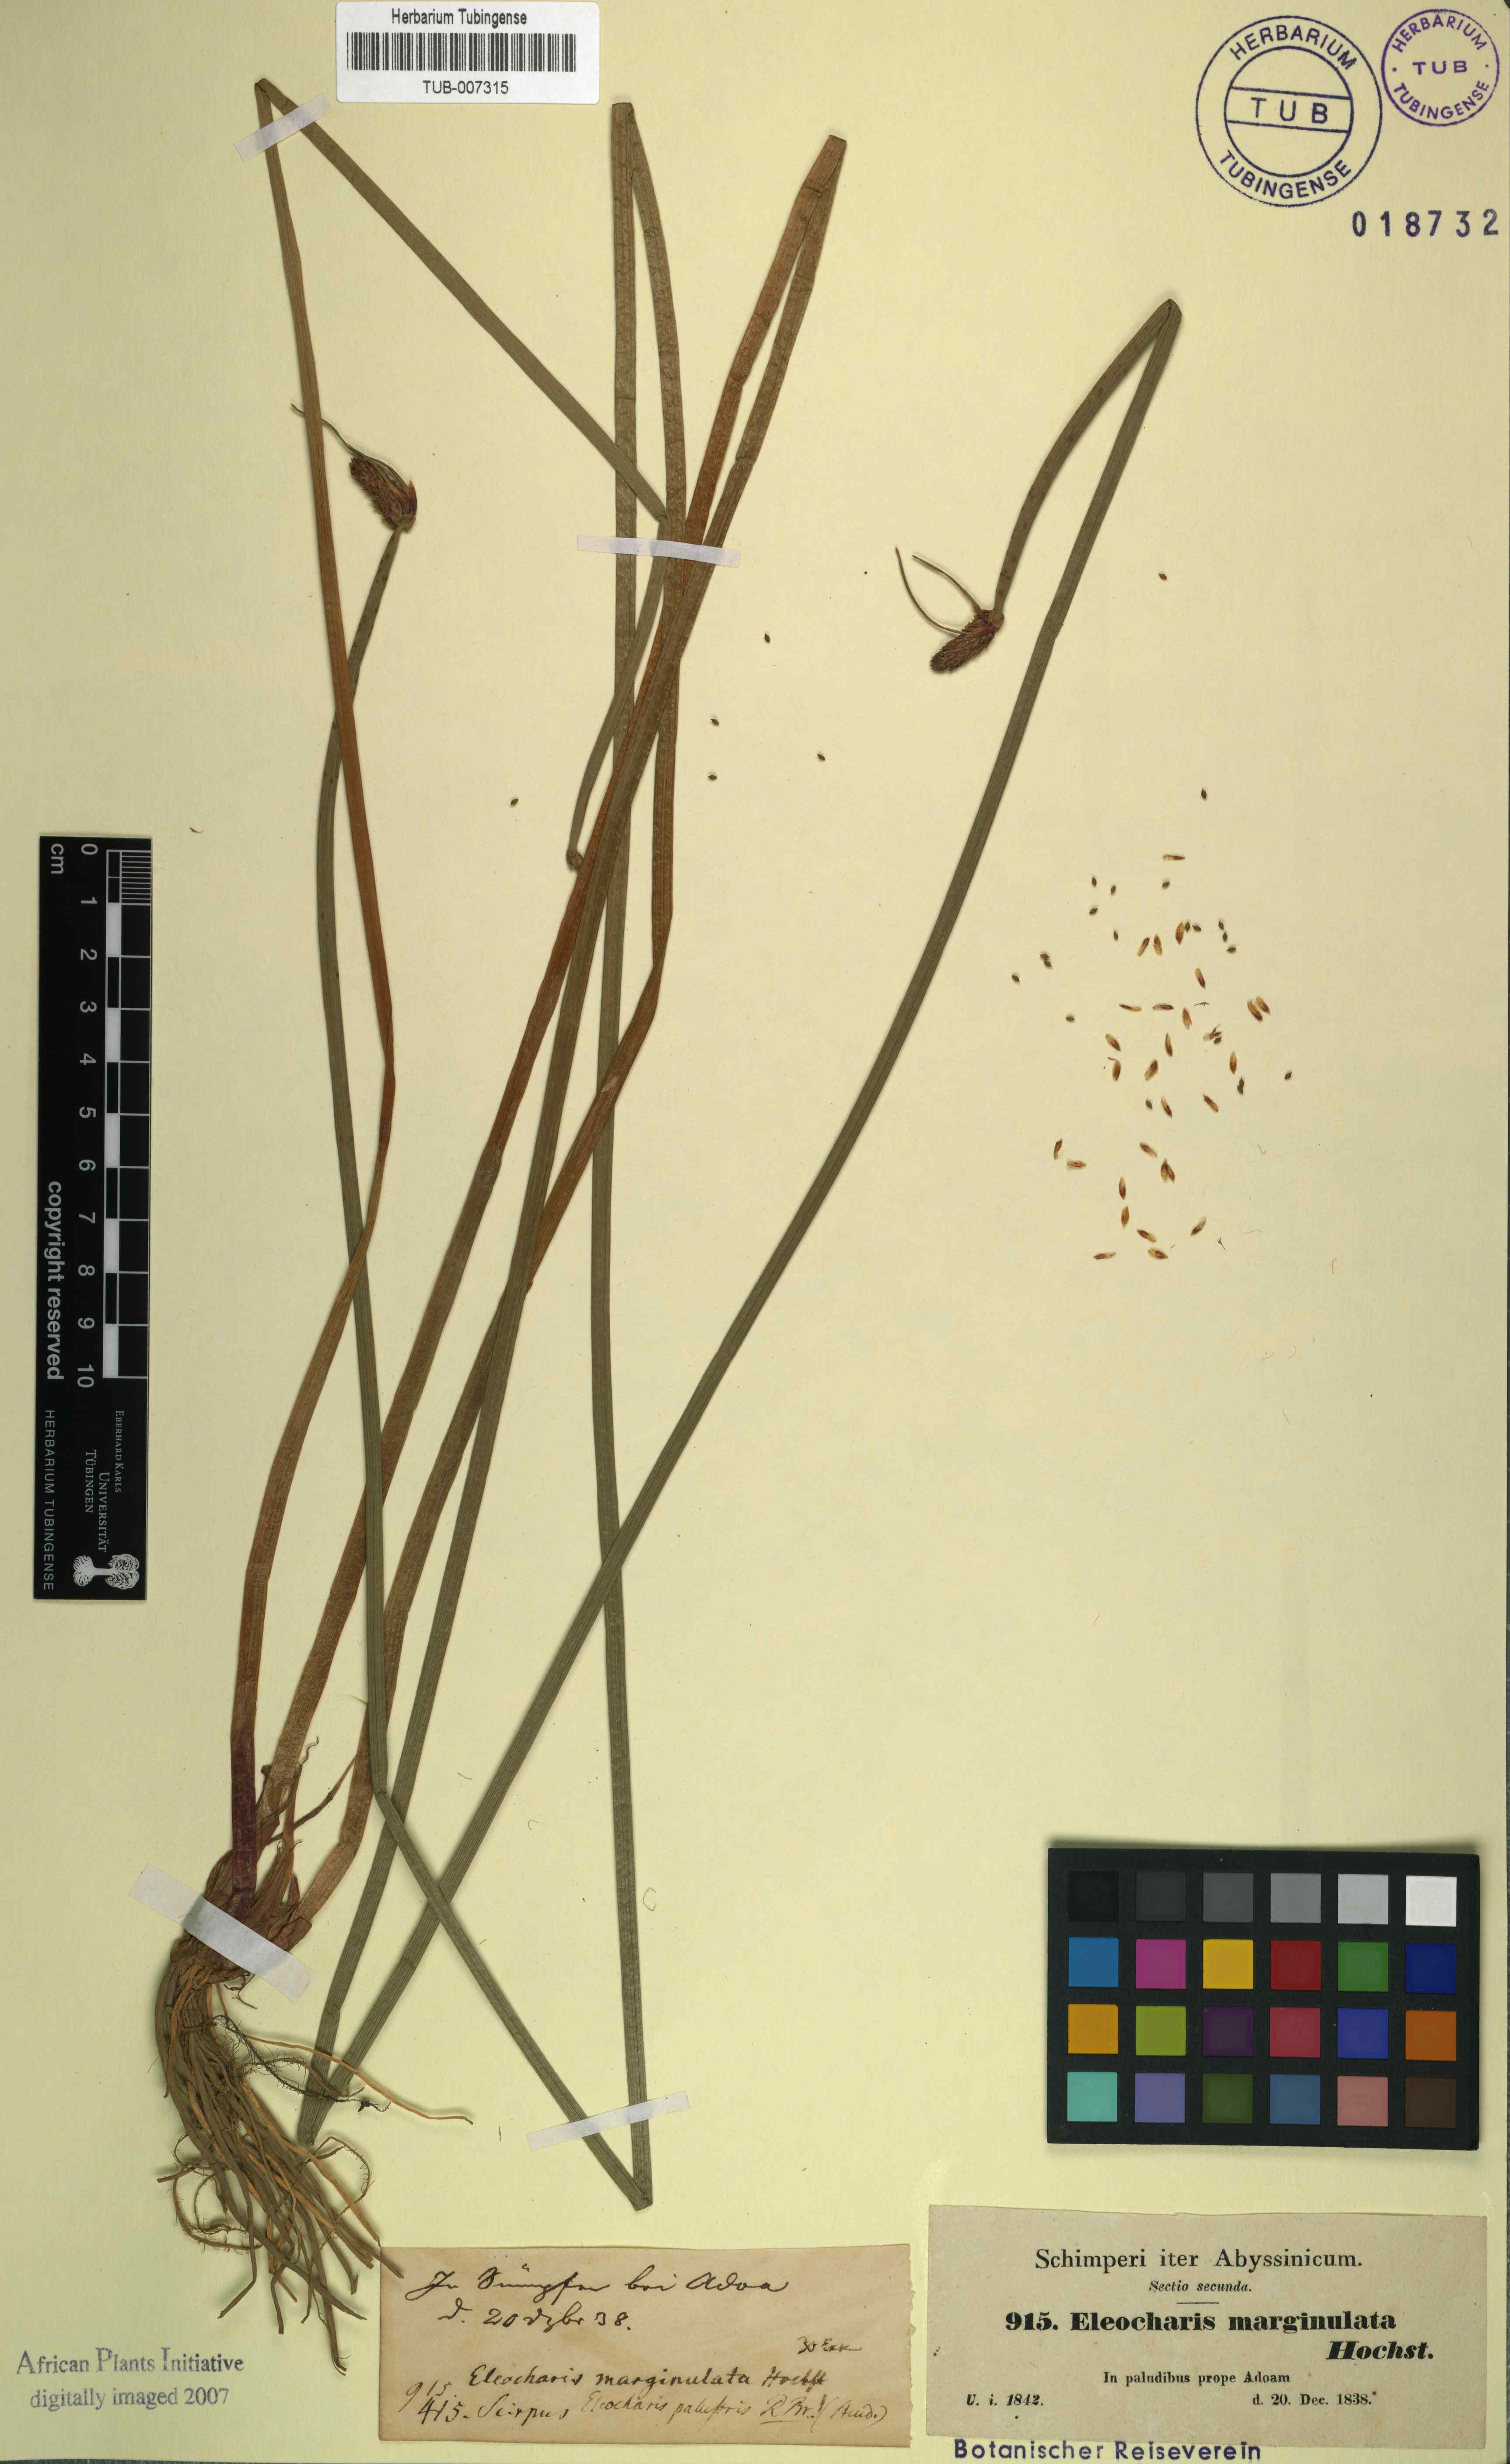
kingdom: Plantae
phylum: Tracheophyta
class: Liliopsida
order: Poales
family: Cyperaceae
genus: Eleocharis
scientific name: Eleocharis limosa
